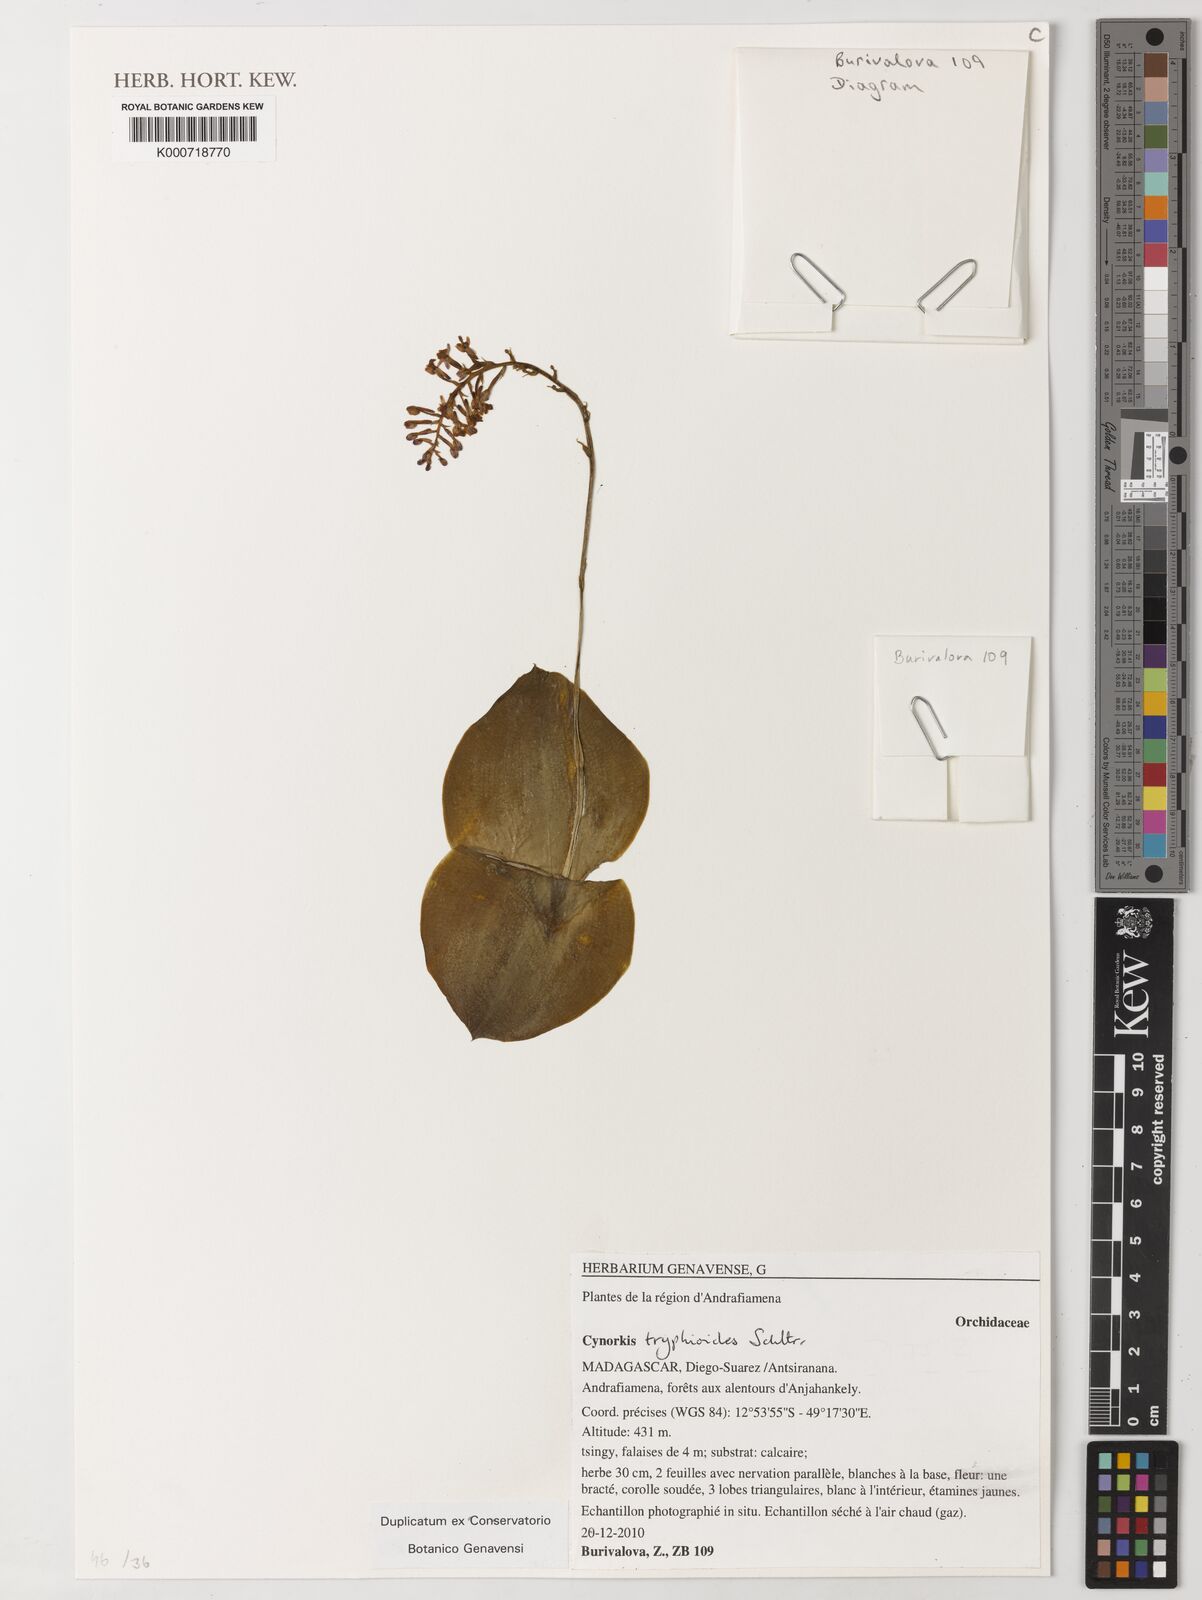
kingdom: Plantae
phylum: Tracheophyta
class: Liliopsida
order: Asparagales
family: Orchidaceae
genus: Cynorkis
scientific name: Cynorkis tryphioides
